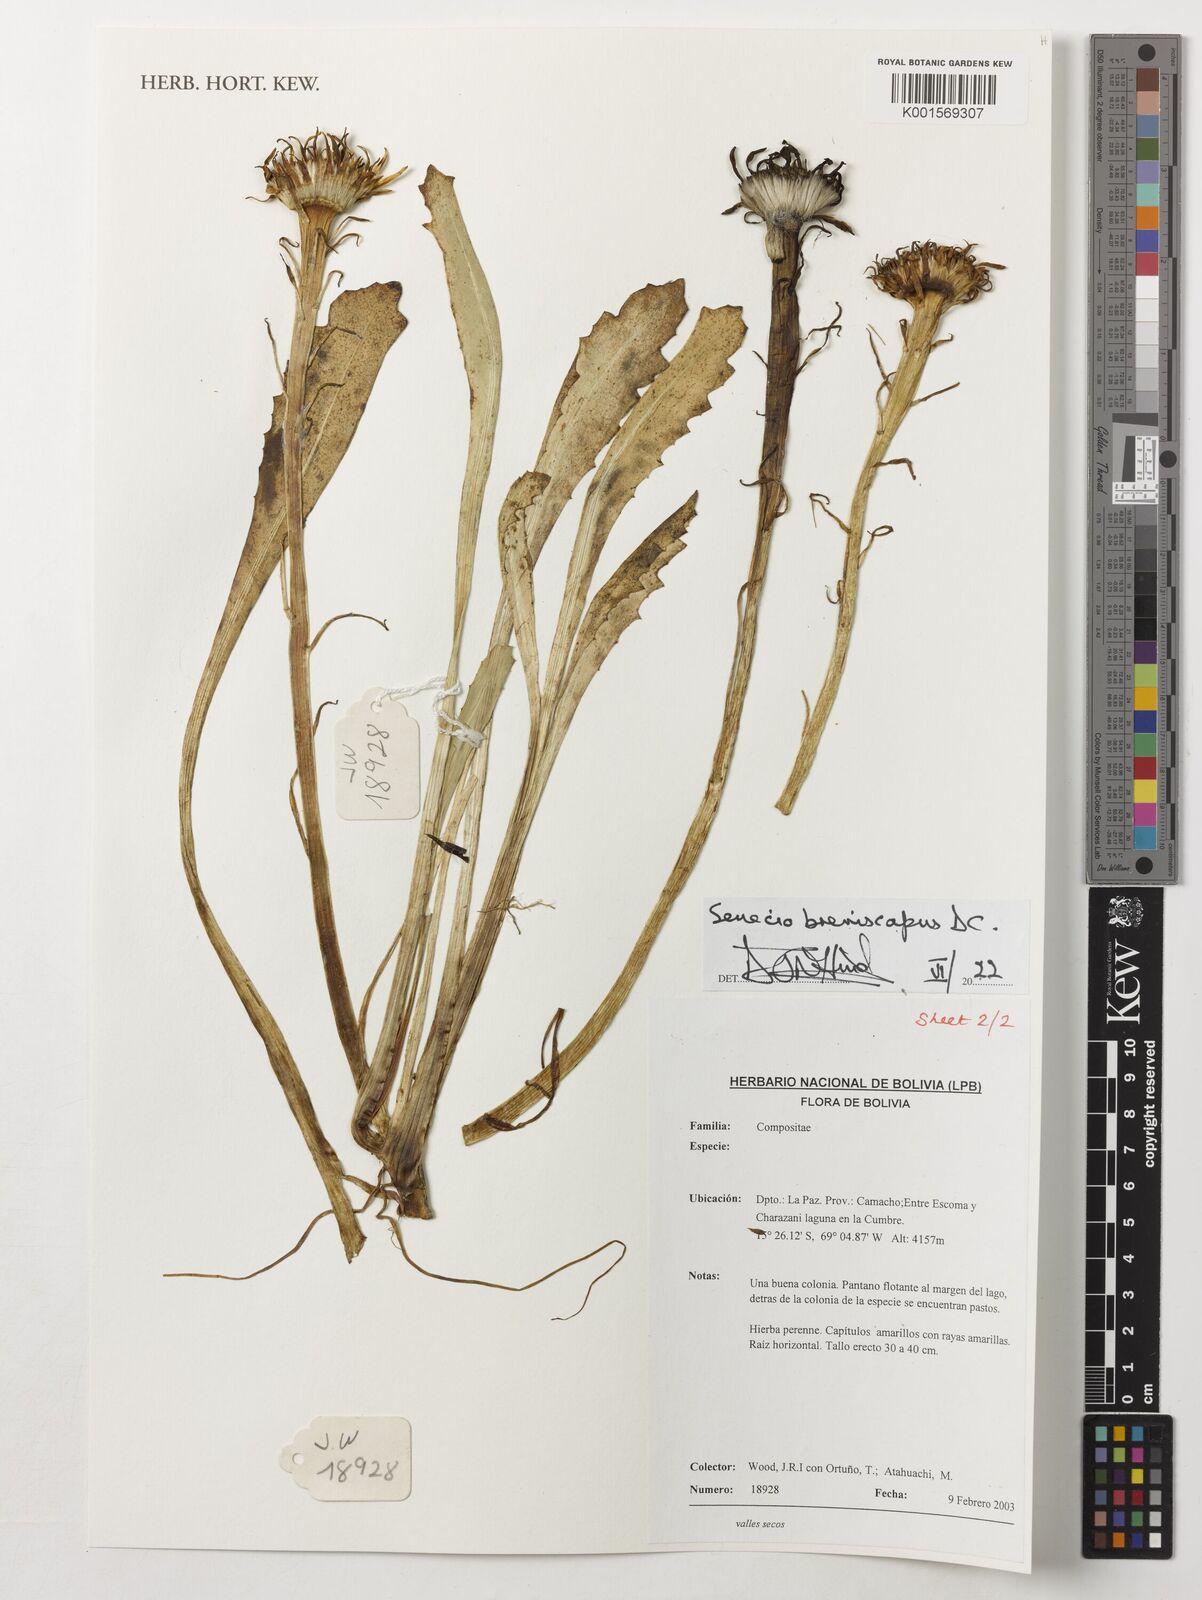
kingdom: Plantae
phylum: Tracheophyta
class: Magnoliopsida
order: Asterales
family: Asteraceae
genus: Senecio
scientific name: Senecio breviscapus
